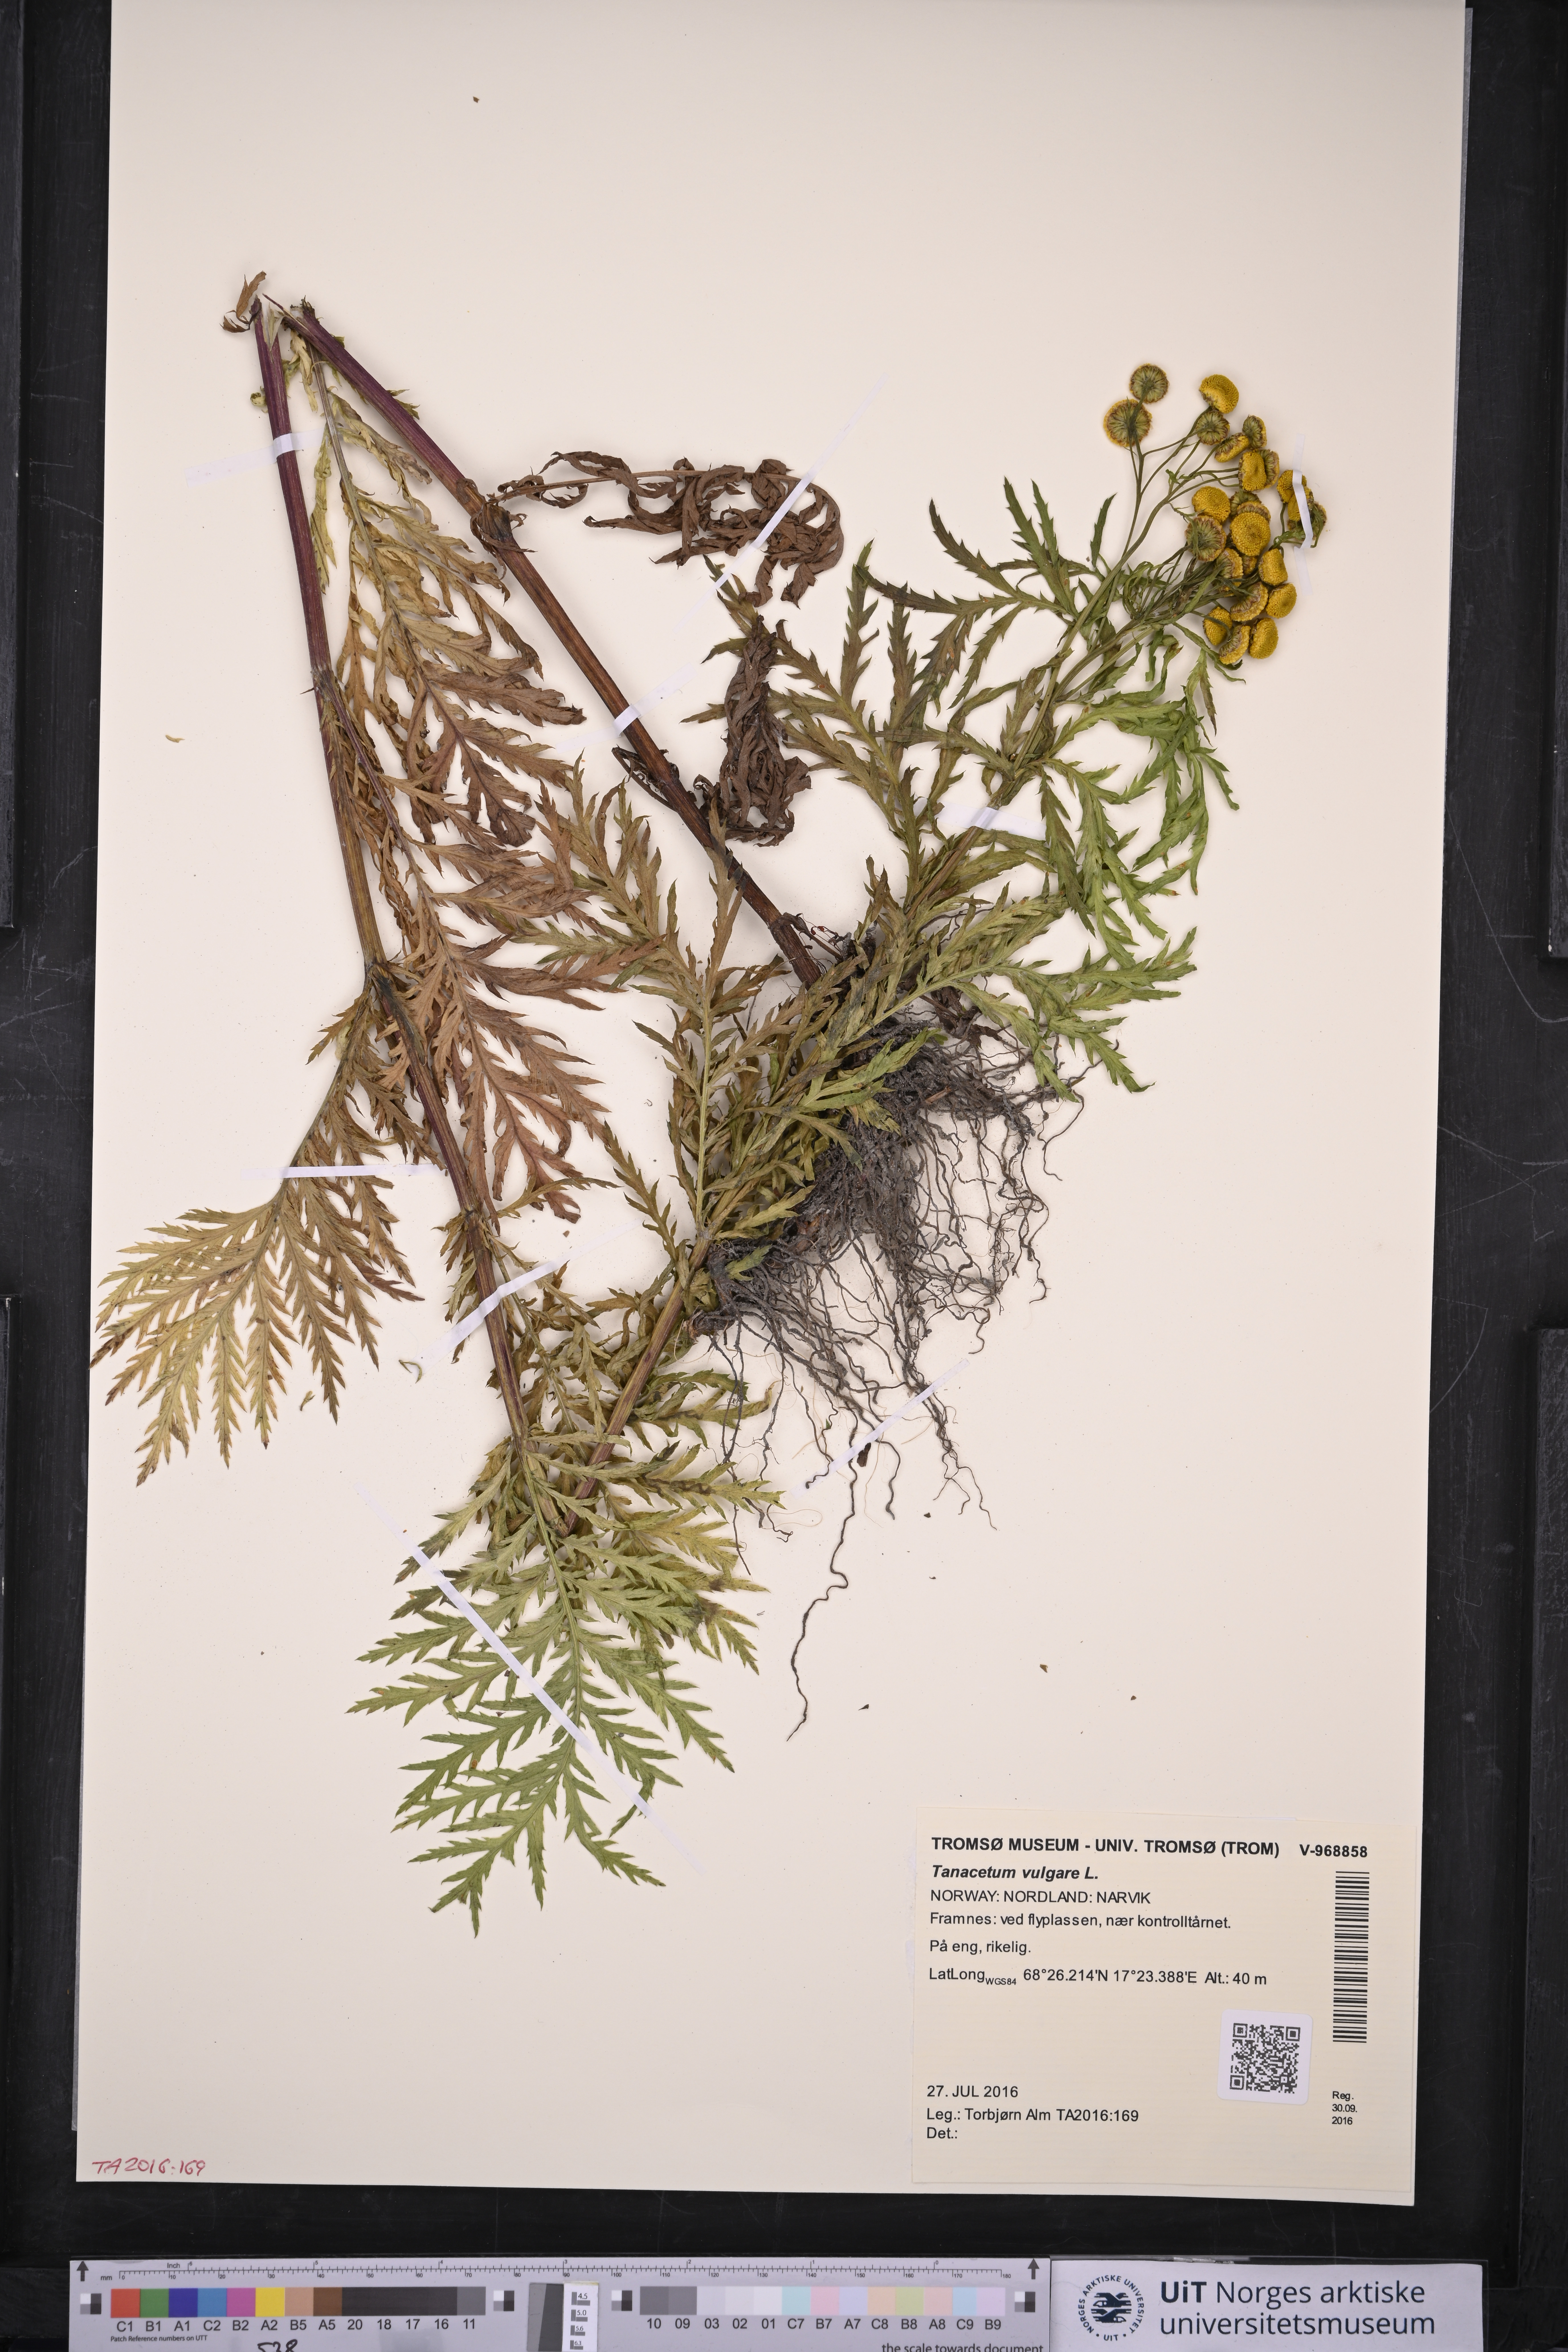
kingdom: Plantae
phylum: Tracheophyta
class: Magnoliopsida
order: Asterales
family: Asteraceae
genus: Tanacetum
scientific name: Tanacetum vulgare
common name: Common tansy
